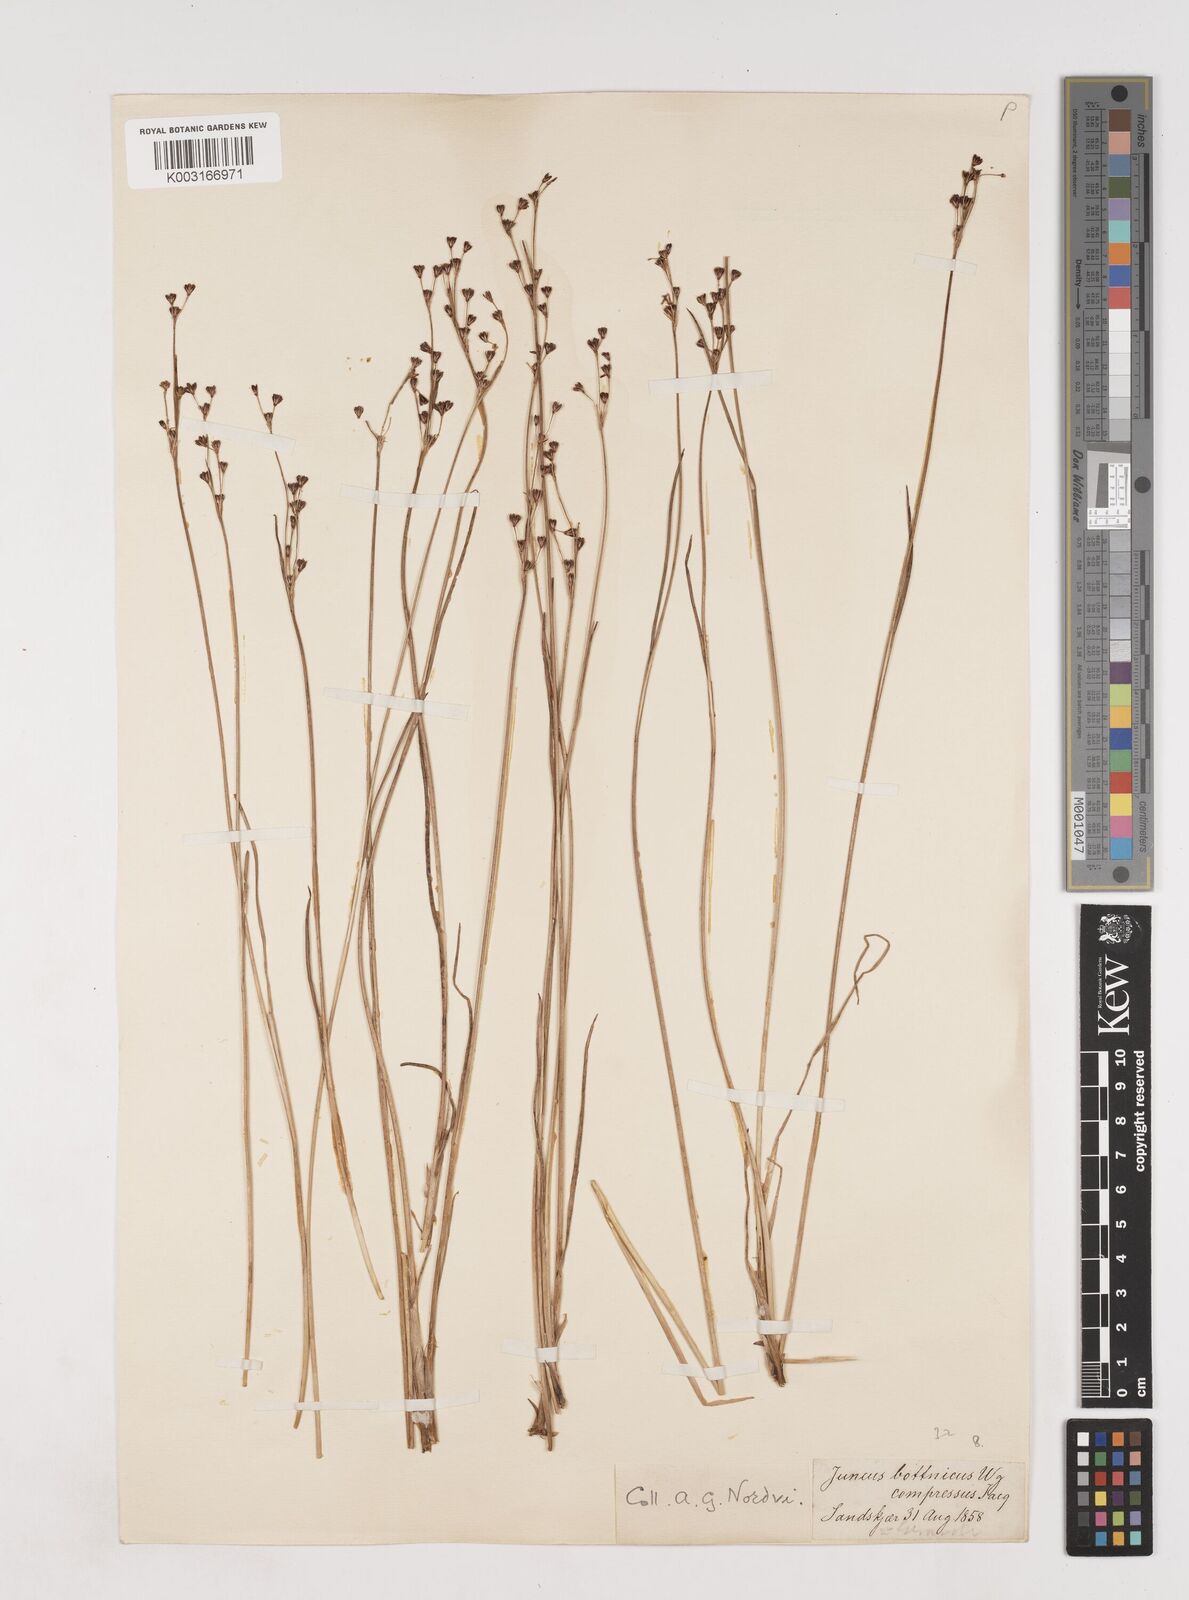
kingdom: Plantae
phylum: Tracheophyta
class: Liliopsida
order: Poales
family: Juncaceae
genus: Juncus
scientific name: Juncus gerardi
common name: Saltmarsh rush
